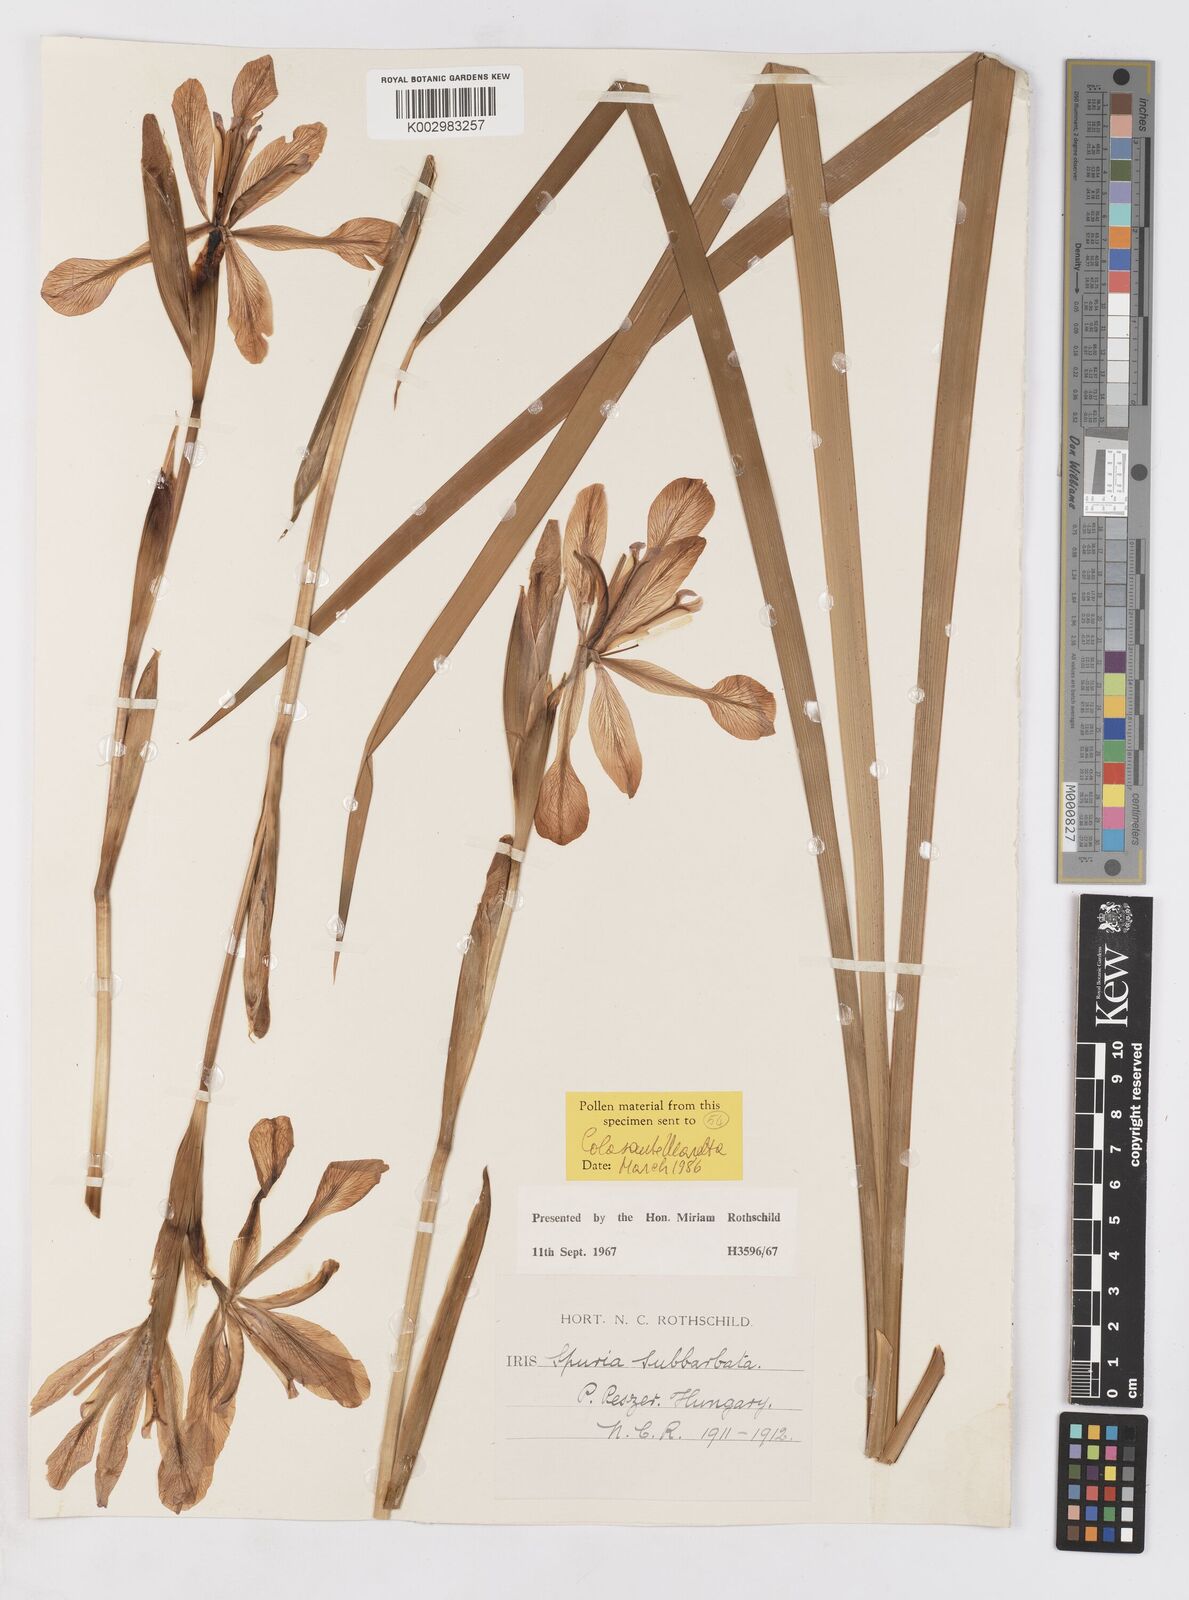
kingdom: Plantae
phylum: Tracheophyta
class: Liliopsida
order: Asparagales
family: Iridaceae
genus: Iris
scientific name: Iris spuria
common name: Blue iris
